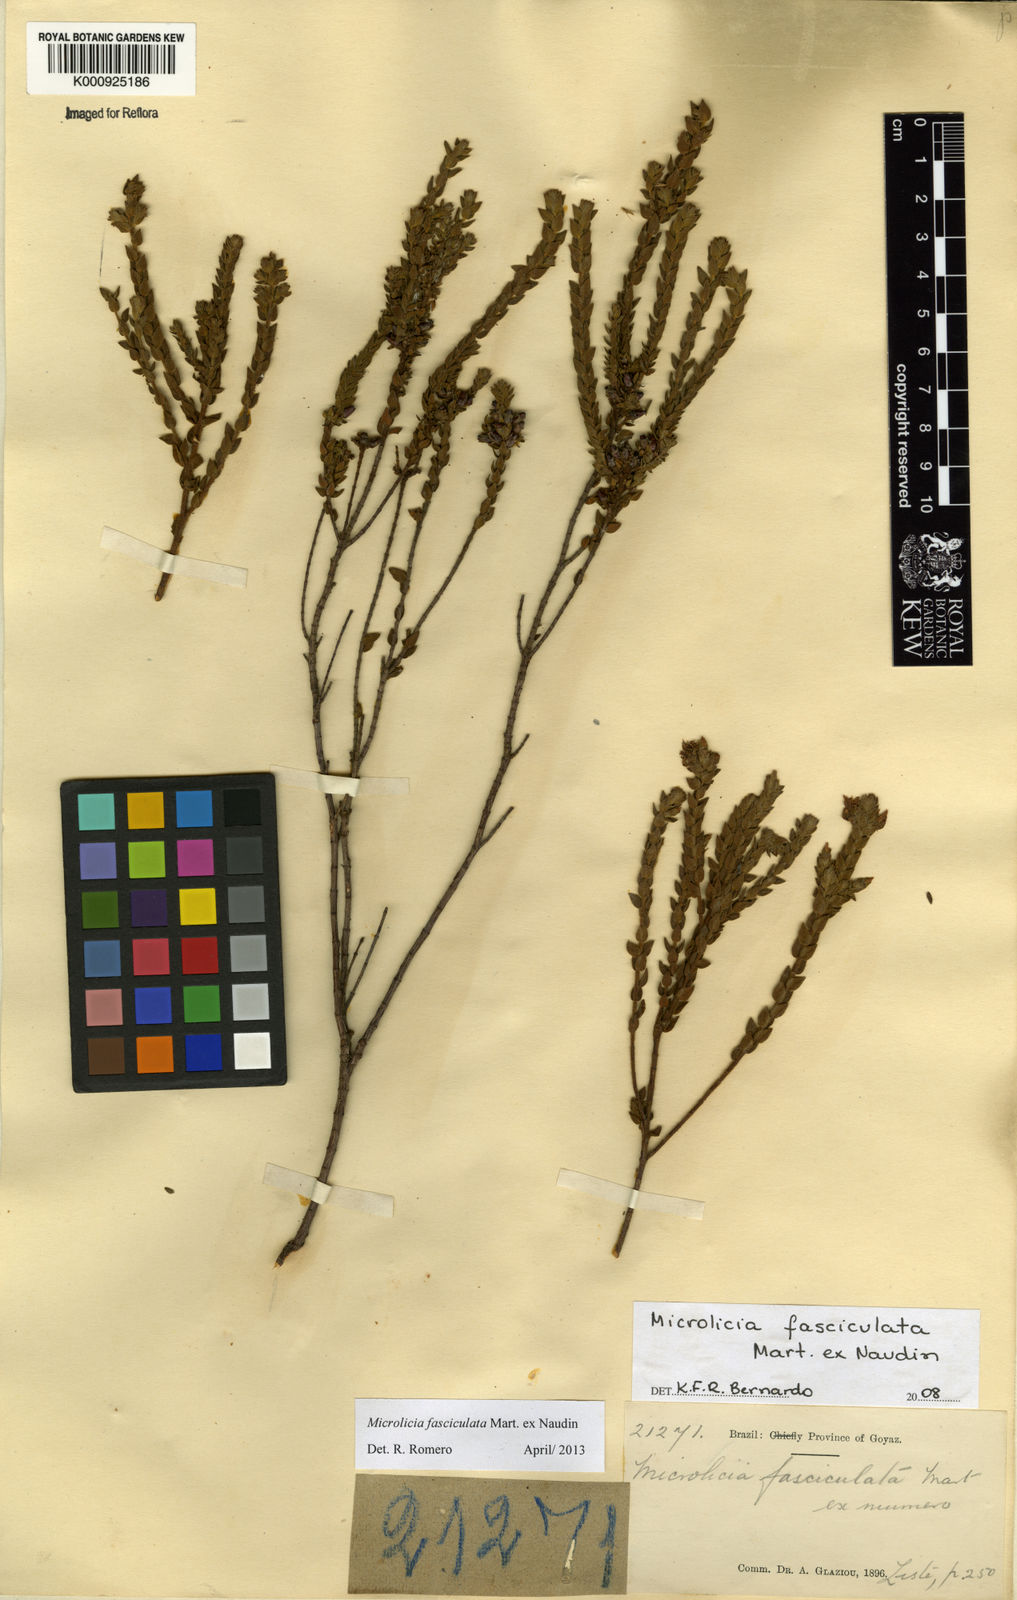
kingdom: Plantae
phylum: Tracheophyta
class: Magnoliopsida
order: Myrtales
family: Melastomataceae
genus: Microlicia
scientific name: Microlicia fasciculata
